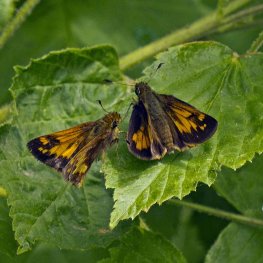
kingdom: Animalia
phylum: Arthropoda
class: Insecta
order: Lepidoptera
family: Hesperiidae
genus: Lon
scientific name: Lon hobomok
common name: Hobomok Skipper
